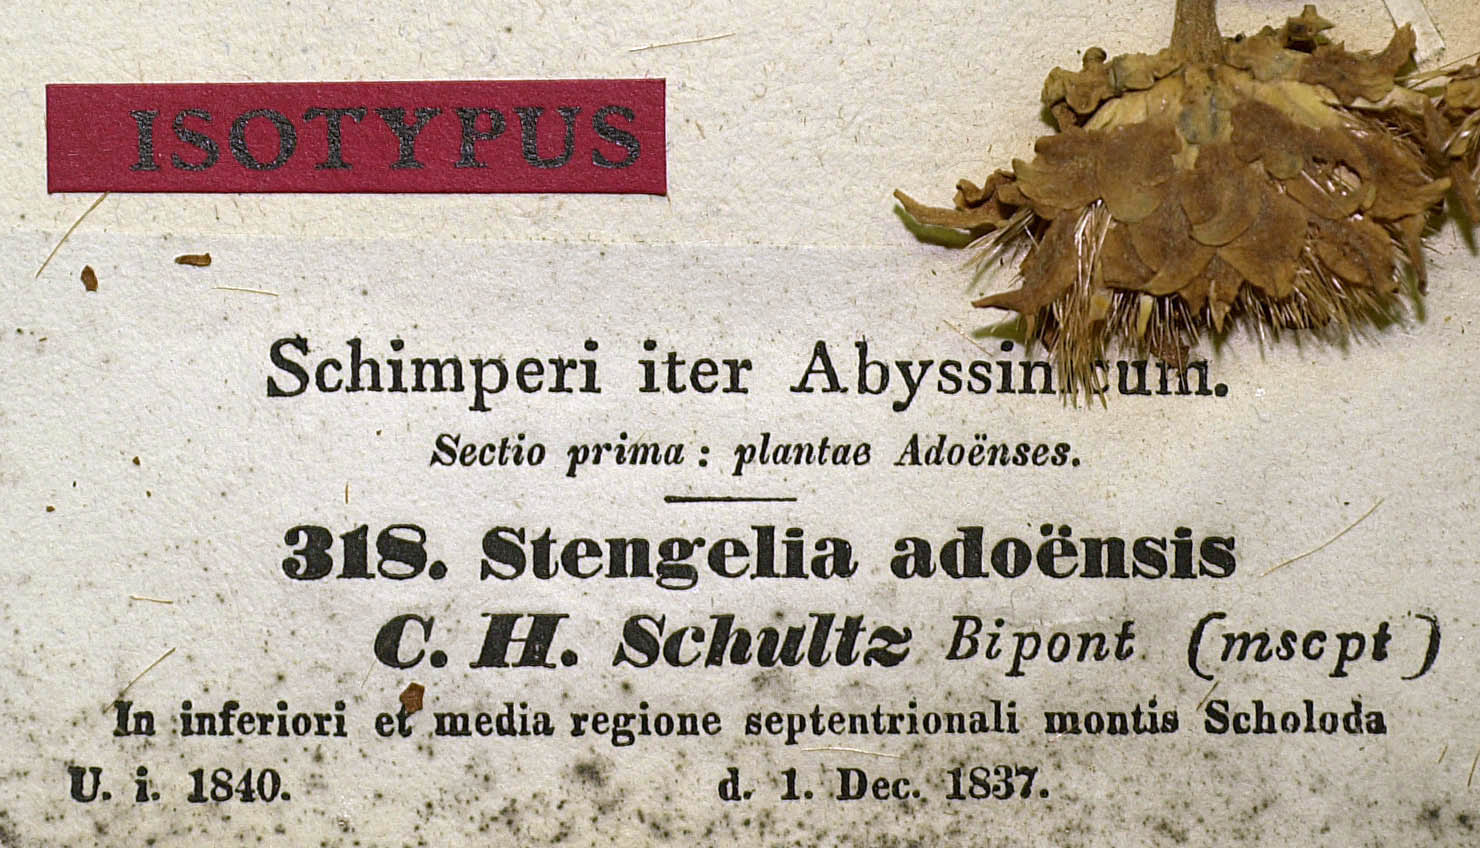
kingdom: Plantae
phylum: Tracheophyta
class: Magnoliopsida
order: Asterales
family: Asteraceae
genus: Baccharoides
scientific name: Baccharoides adoensis
